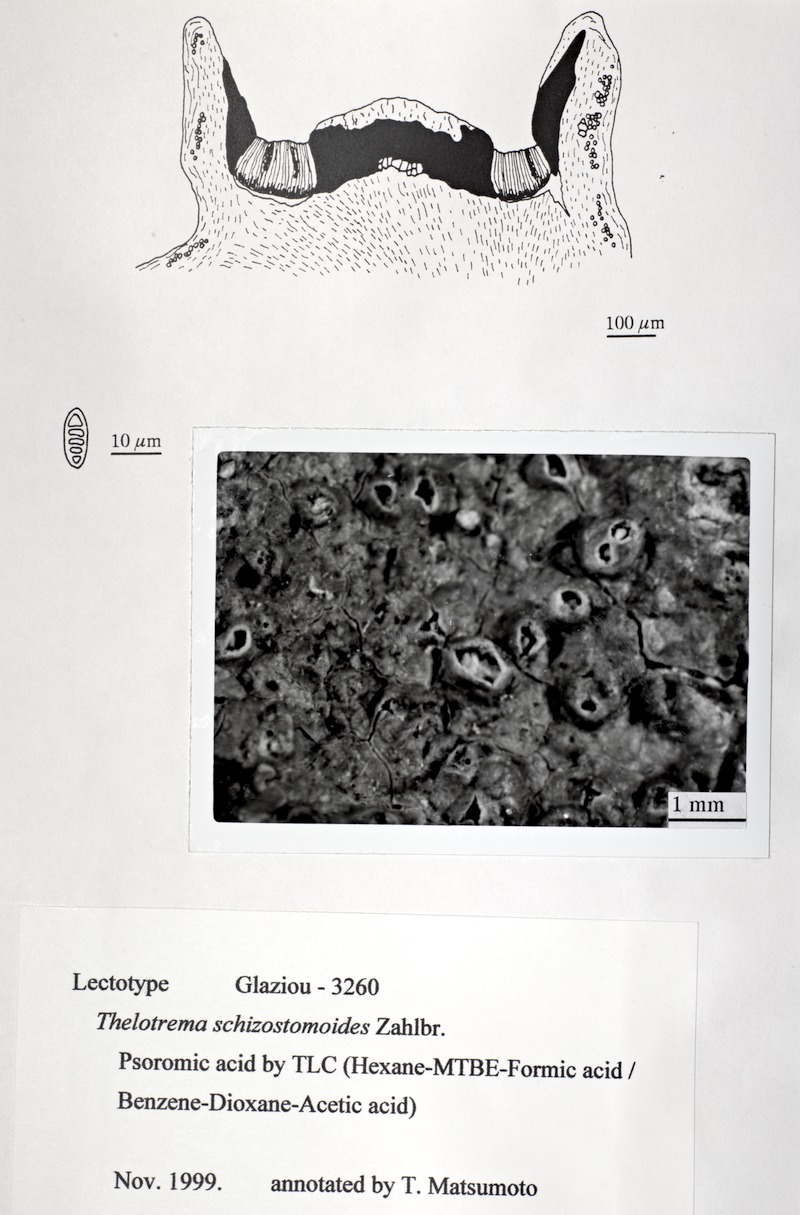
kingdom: Fungi
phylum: Ascomycota
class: Lecanoromycetes
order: Ostropales
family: Graphidaceae
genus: Rhabdodiscus
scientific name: Rhabdodiscus granulosus
